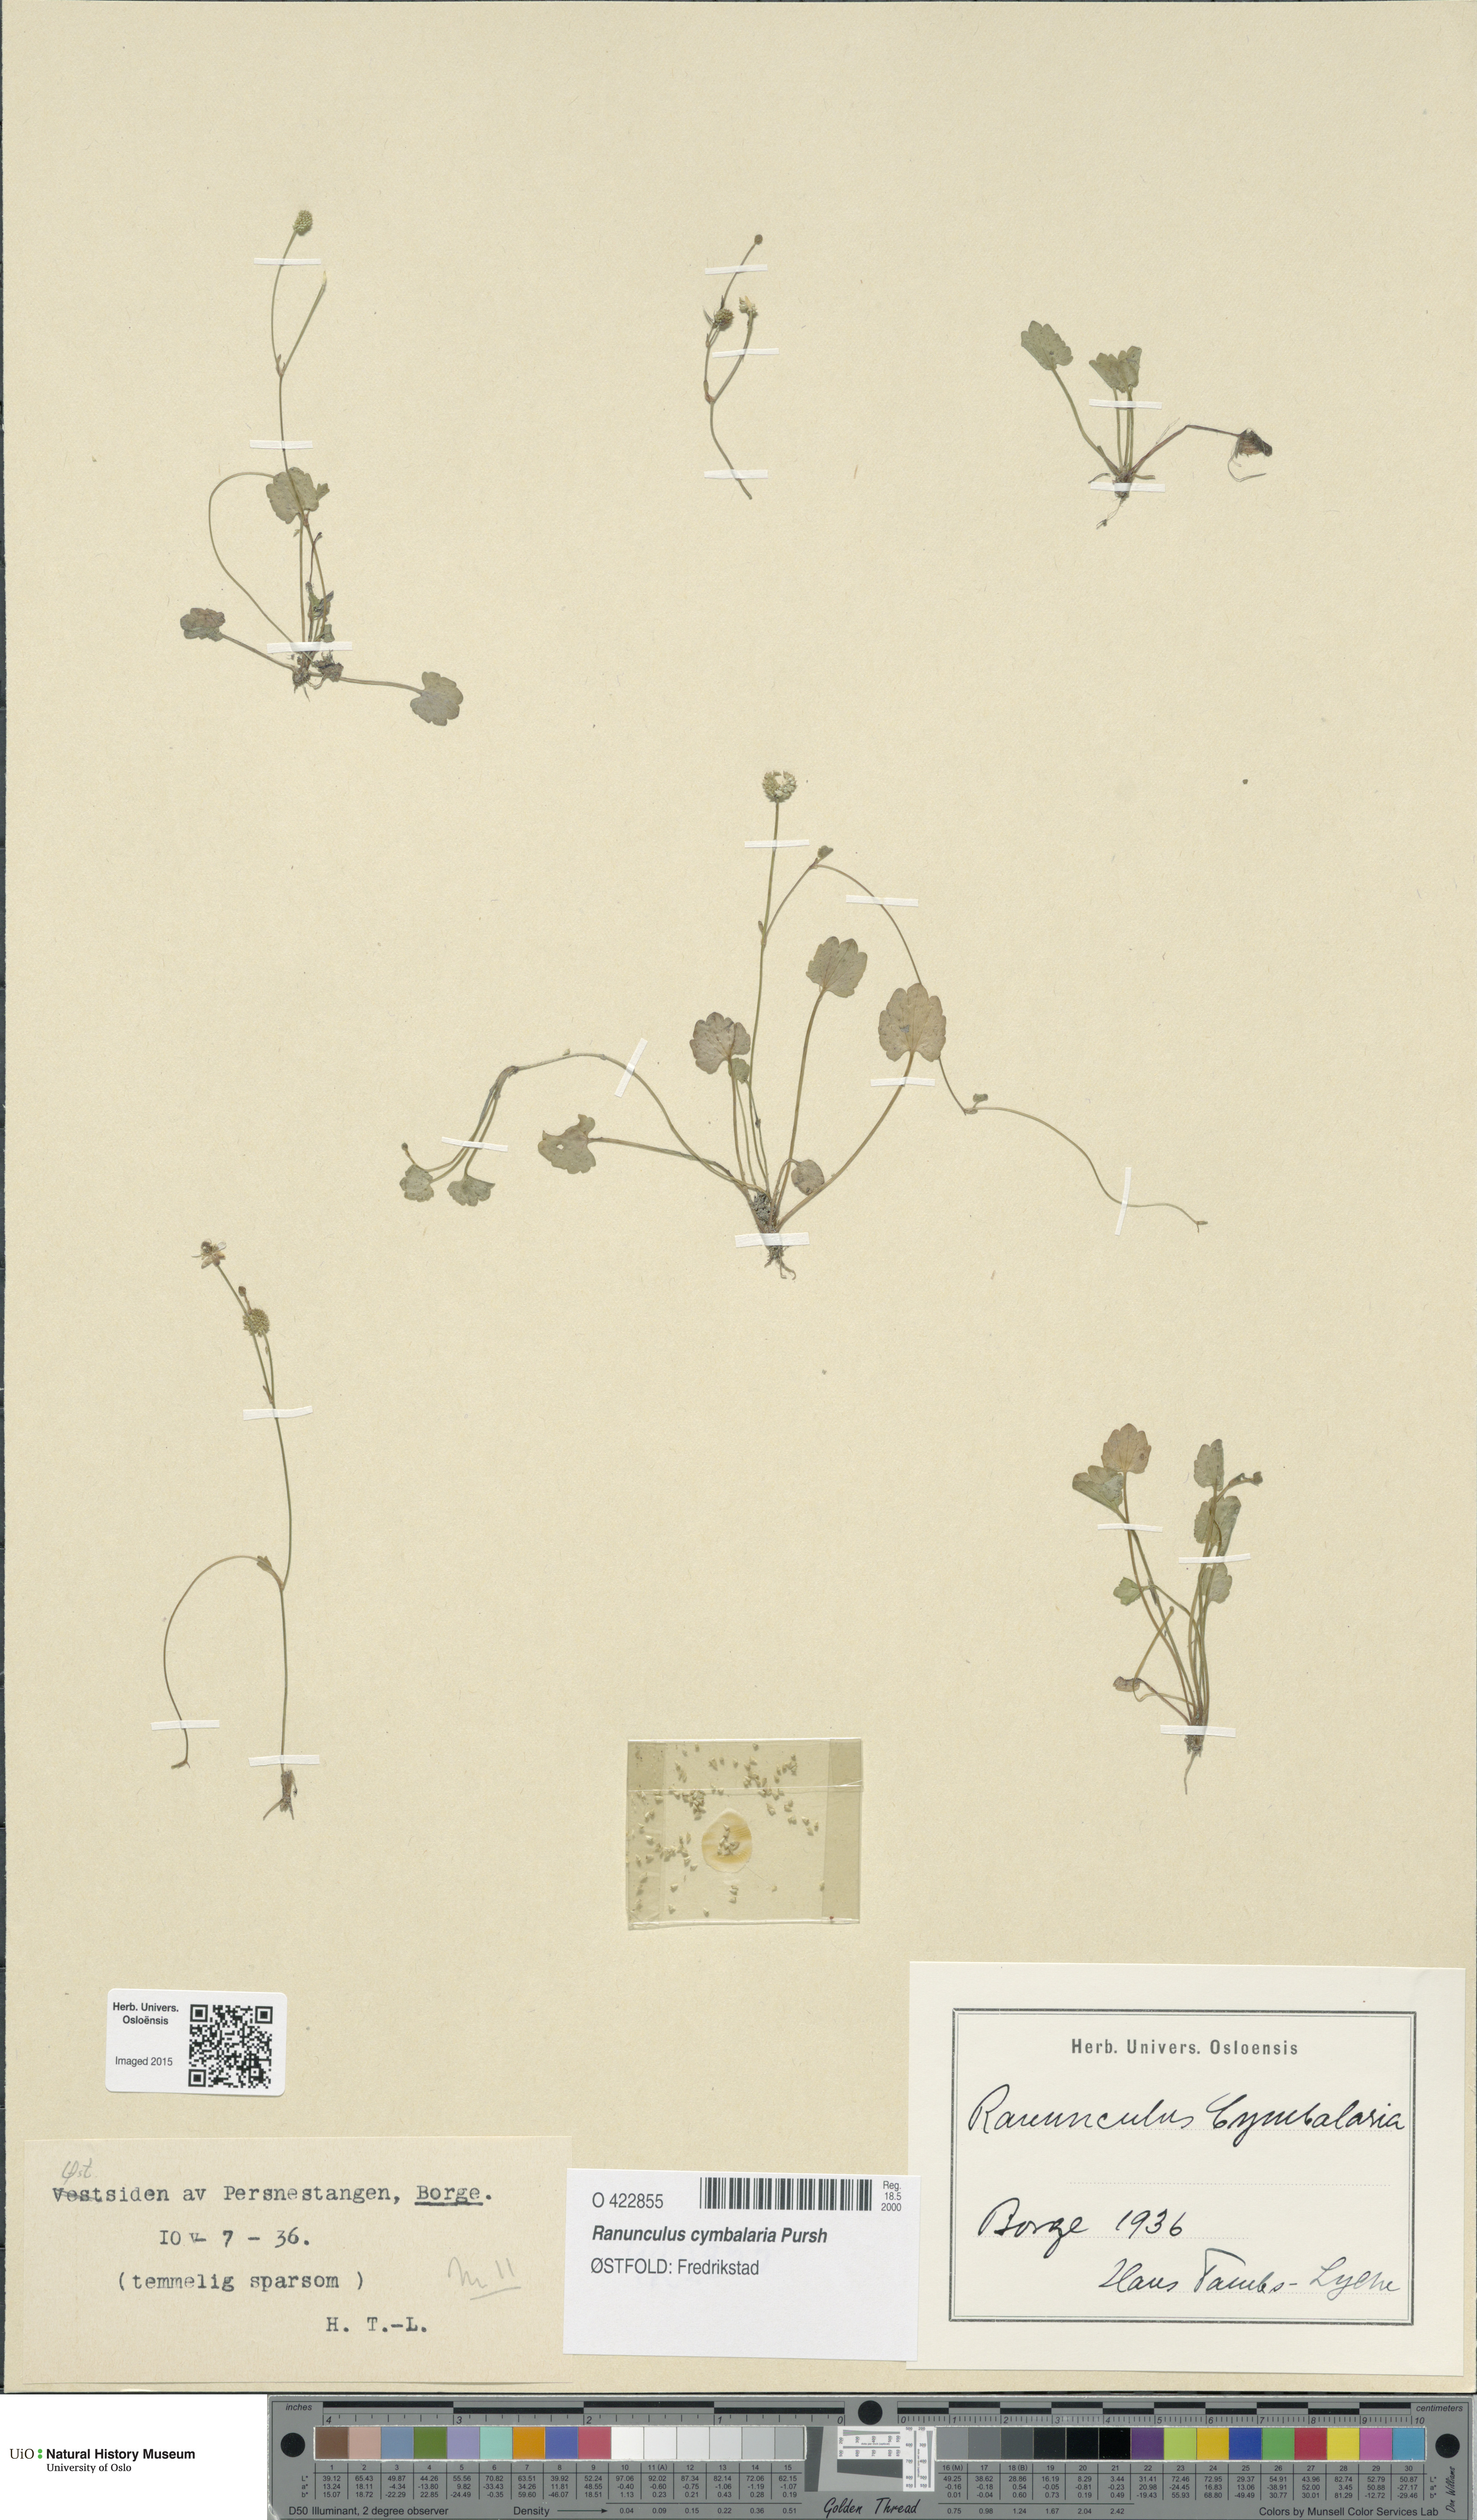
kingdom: Plantae
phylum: Tracheophyta
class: Magnoliopsida
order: Ranunculales
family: Ranunculaceae
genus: Halerpestes
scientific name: Halerpestes cymbalaria
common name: Seaside crowfoot
